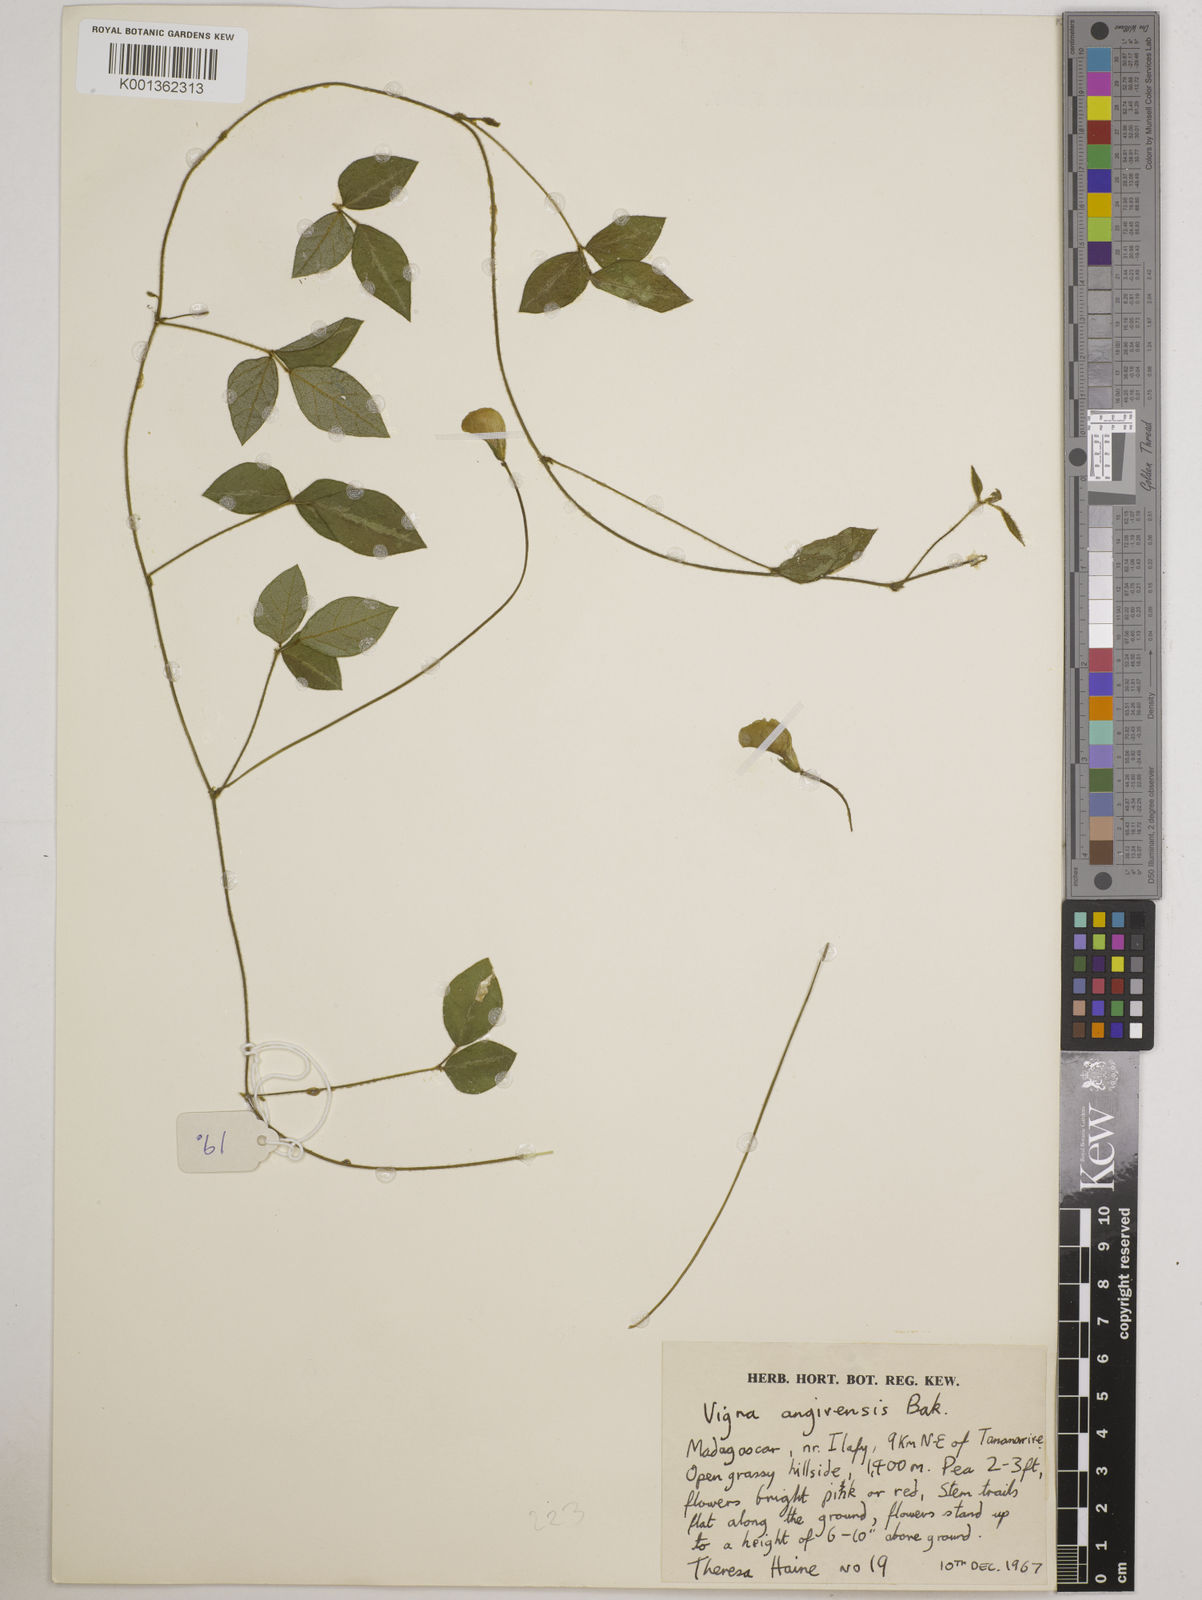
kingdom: Plantae
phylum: Tracheophyta
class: Magnoliopsida
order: Fabales
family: Fabaceae
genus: Vigna
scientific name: Vigna angivensis
